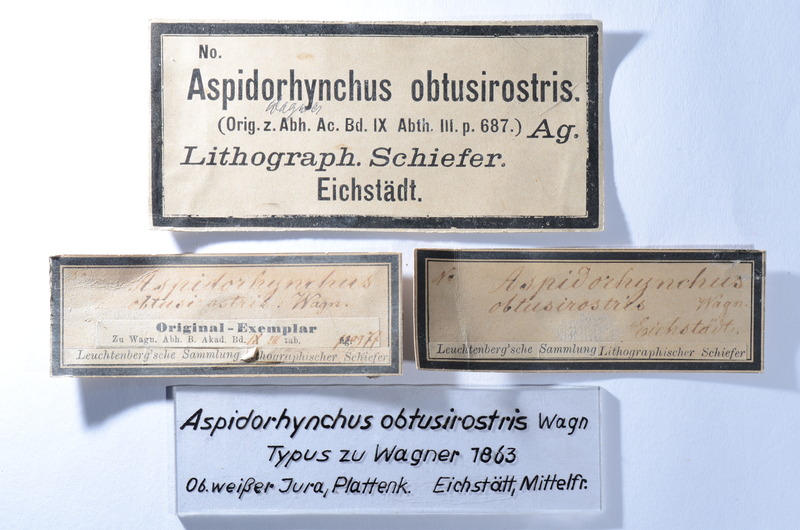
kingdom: Animalia
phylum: Chordata
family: Aspidorhynchidae
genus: Aspidorhynchus
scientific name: Aspidorhynchus acutirostris
